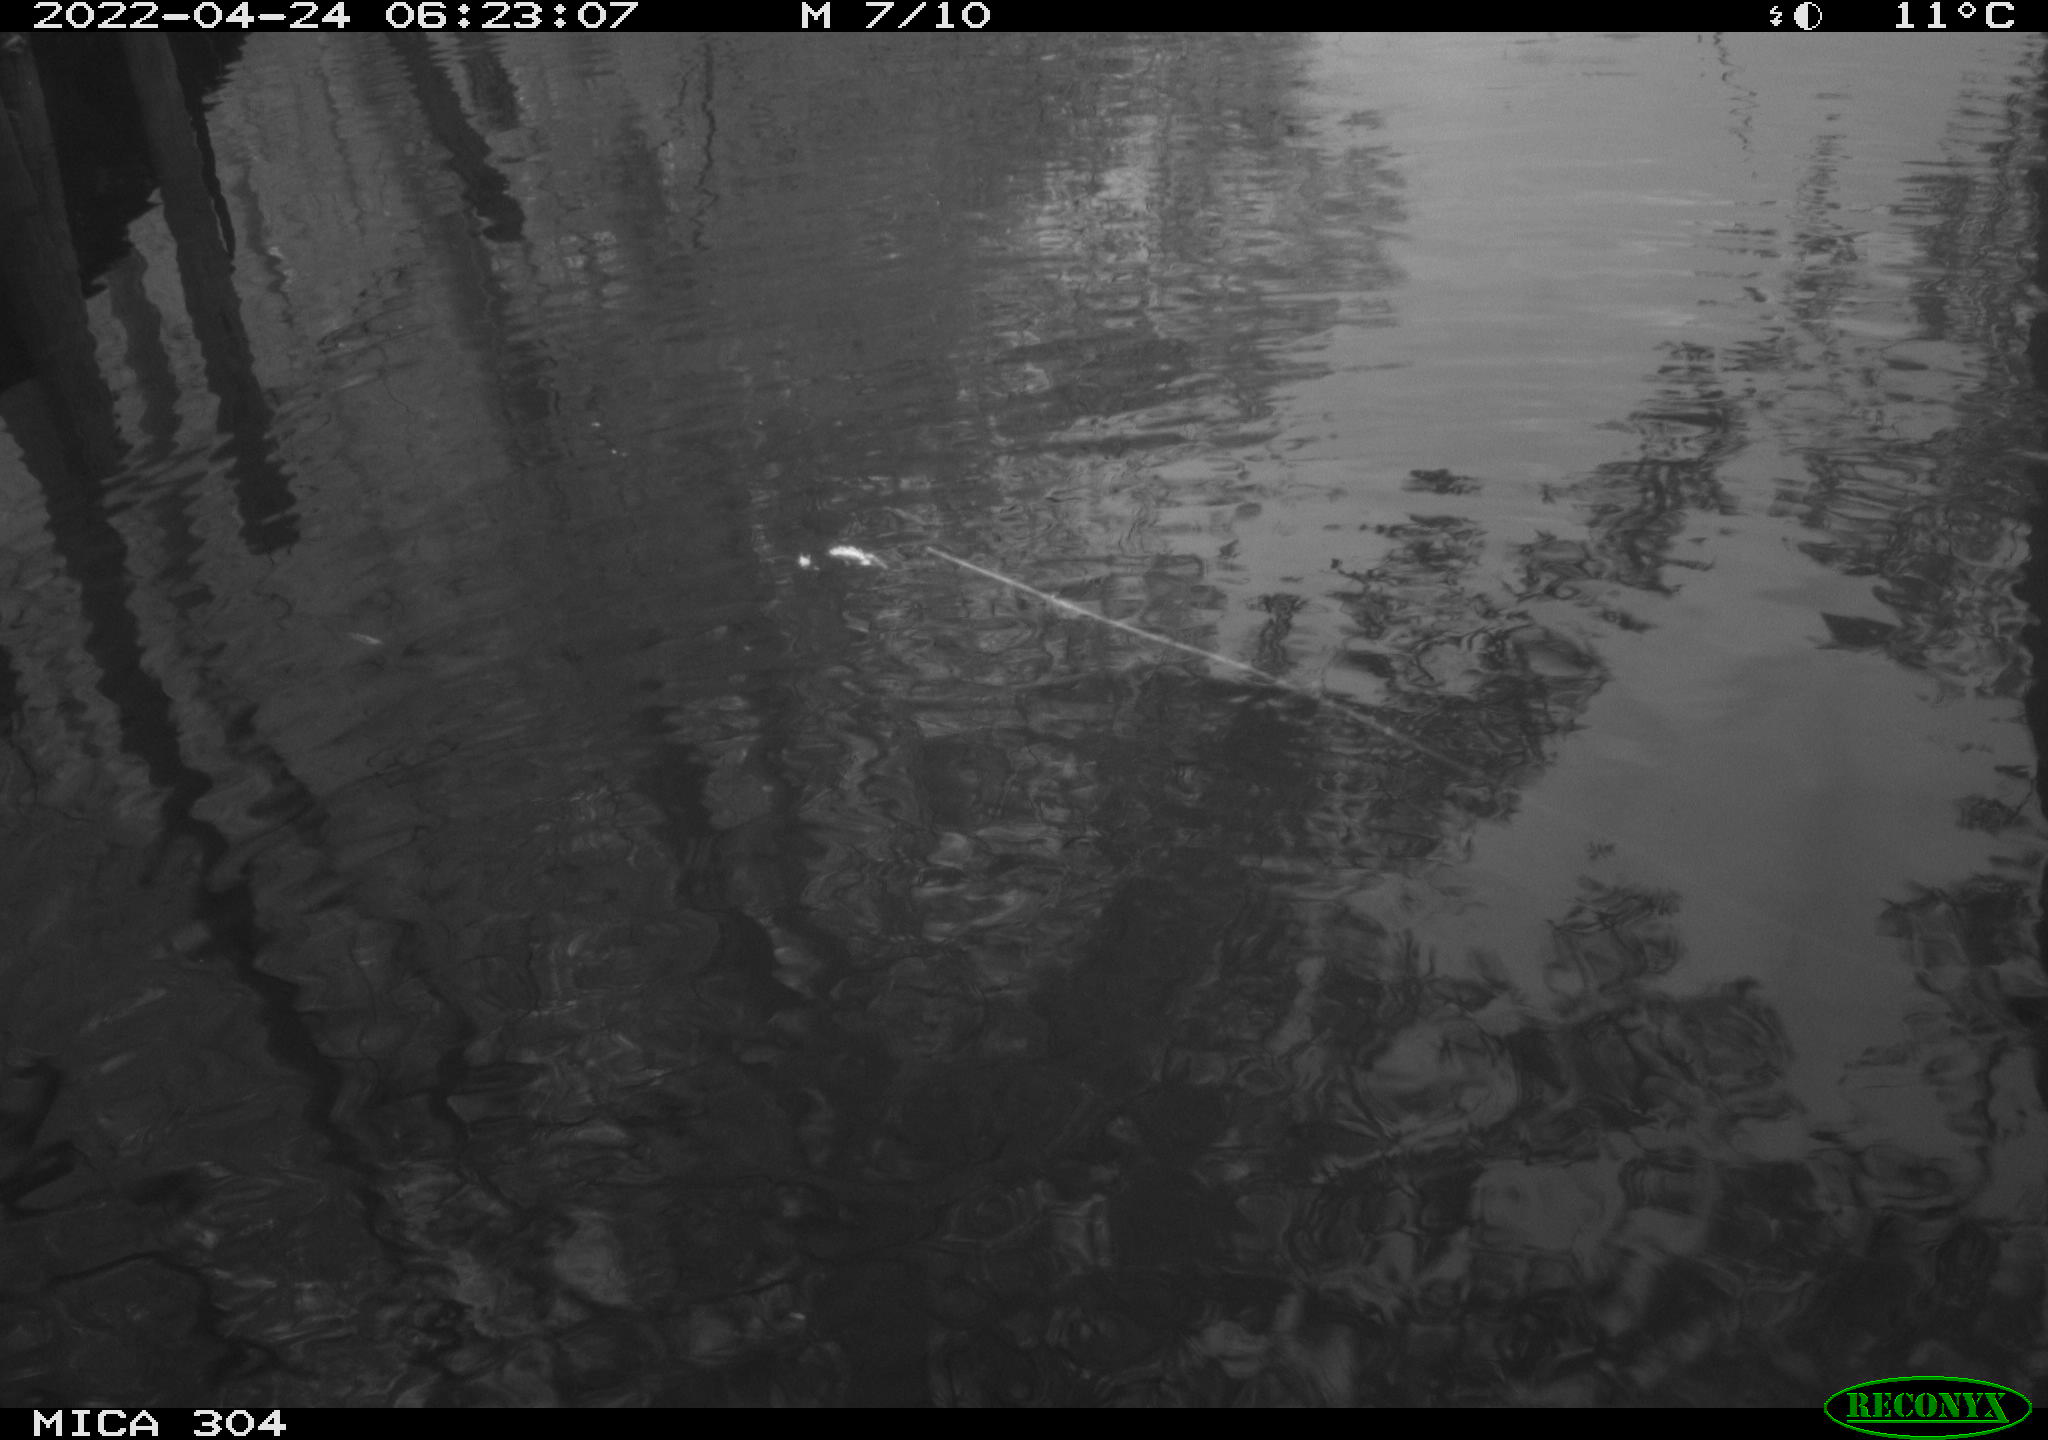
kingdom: Animalia
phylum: Chordata
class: Aves
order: Gruiformes
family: Rallidae
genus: Gallinula
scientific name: Gallinula chloropus
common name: Common moorhen
